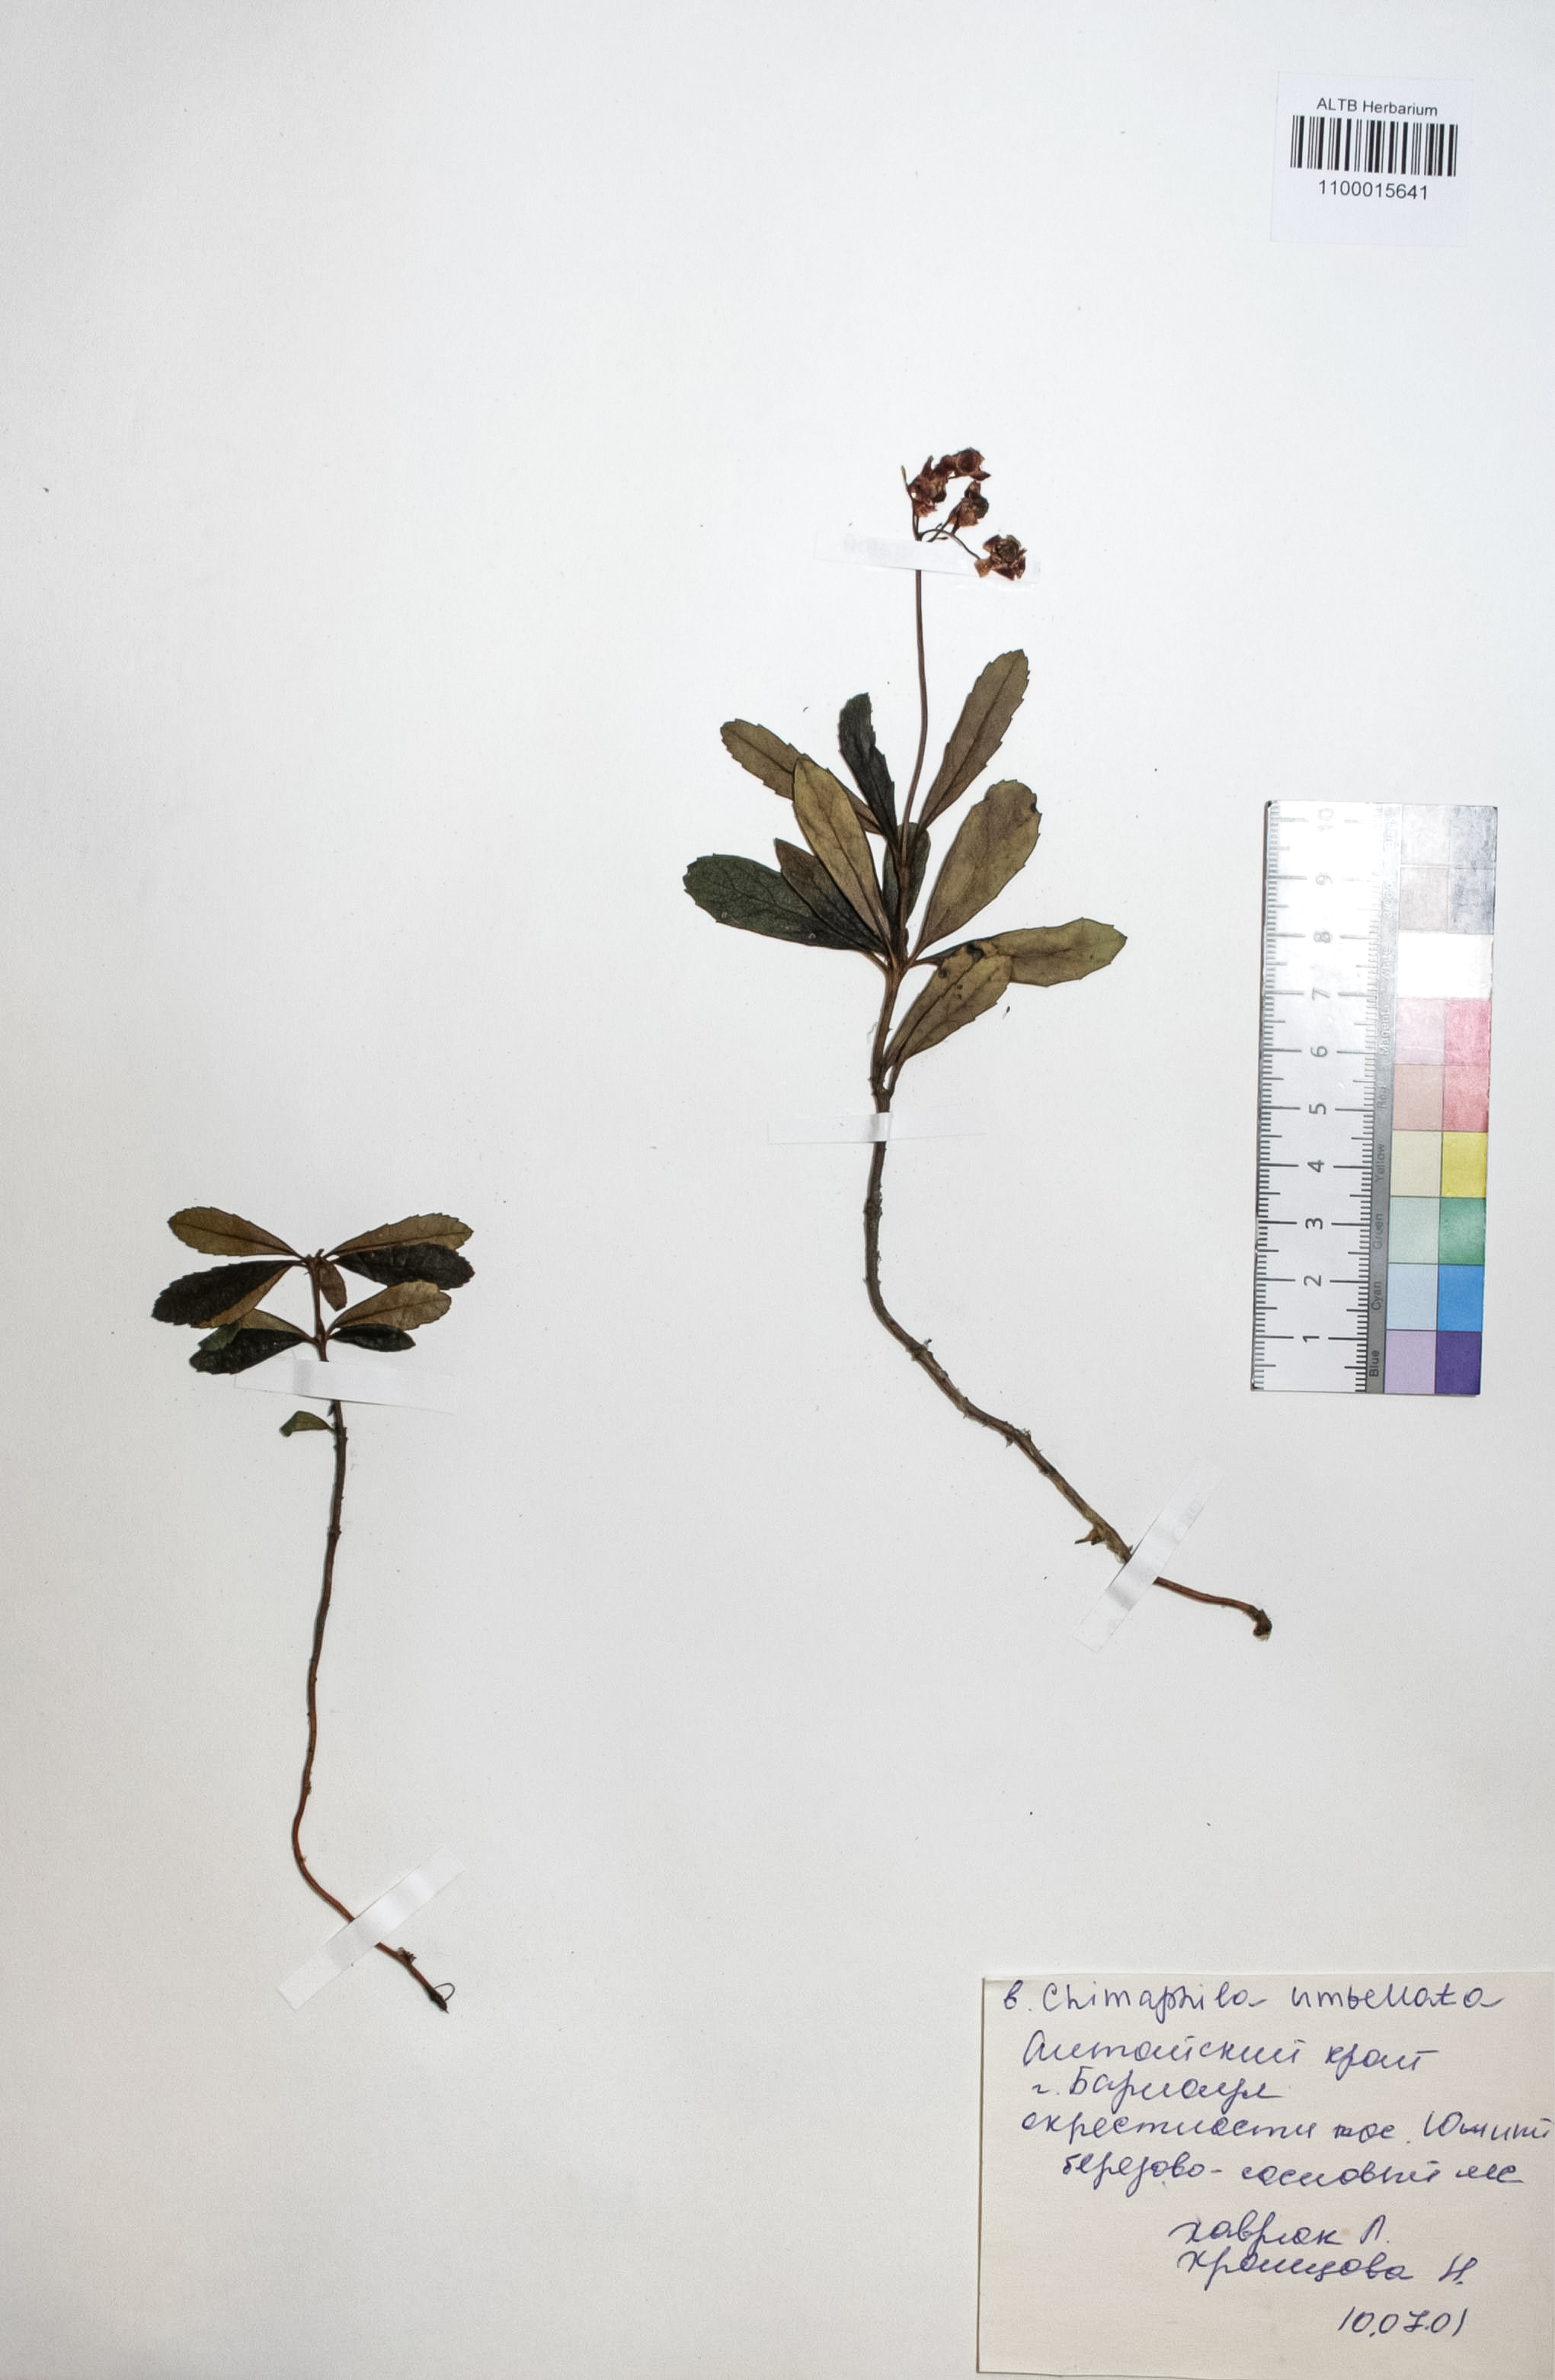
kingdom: Plantae
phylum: Tracheophyta
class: Magnoliopsida
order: Ericales
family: Ericaceae
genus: Chimaphila
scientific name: Chimaphila umbellata
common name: Pipsissewa
